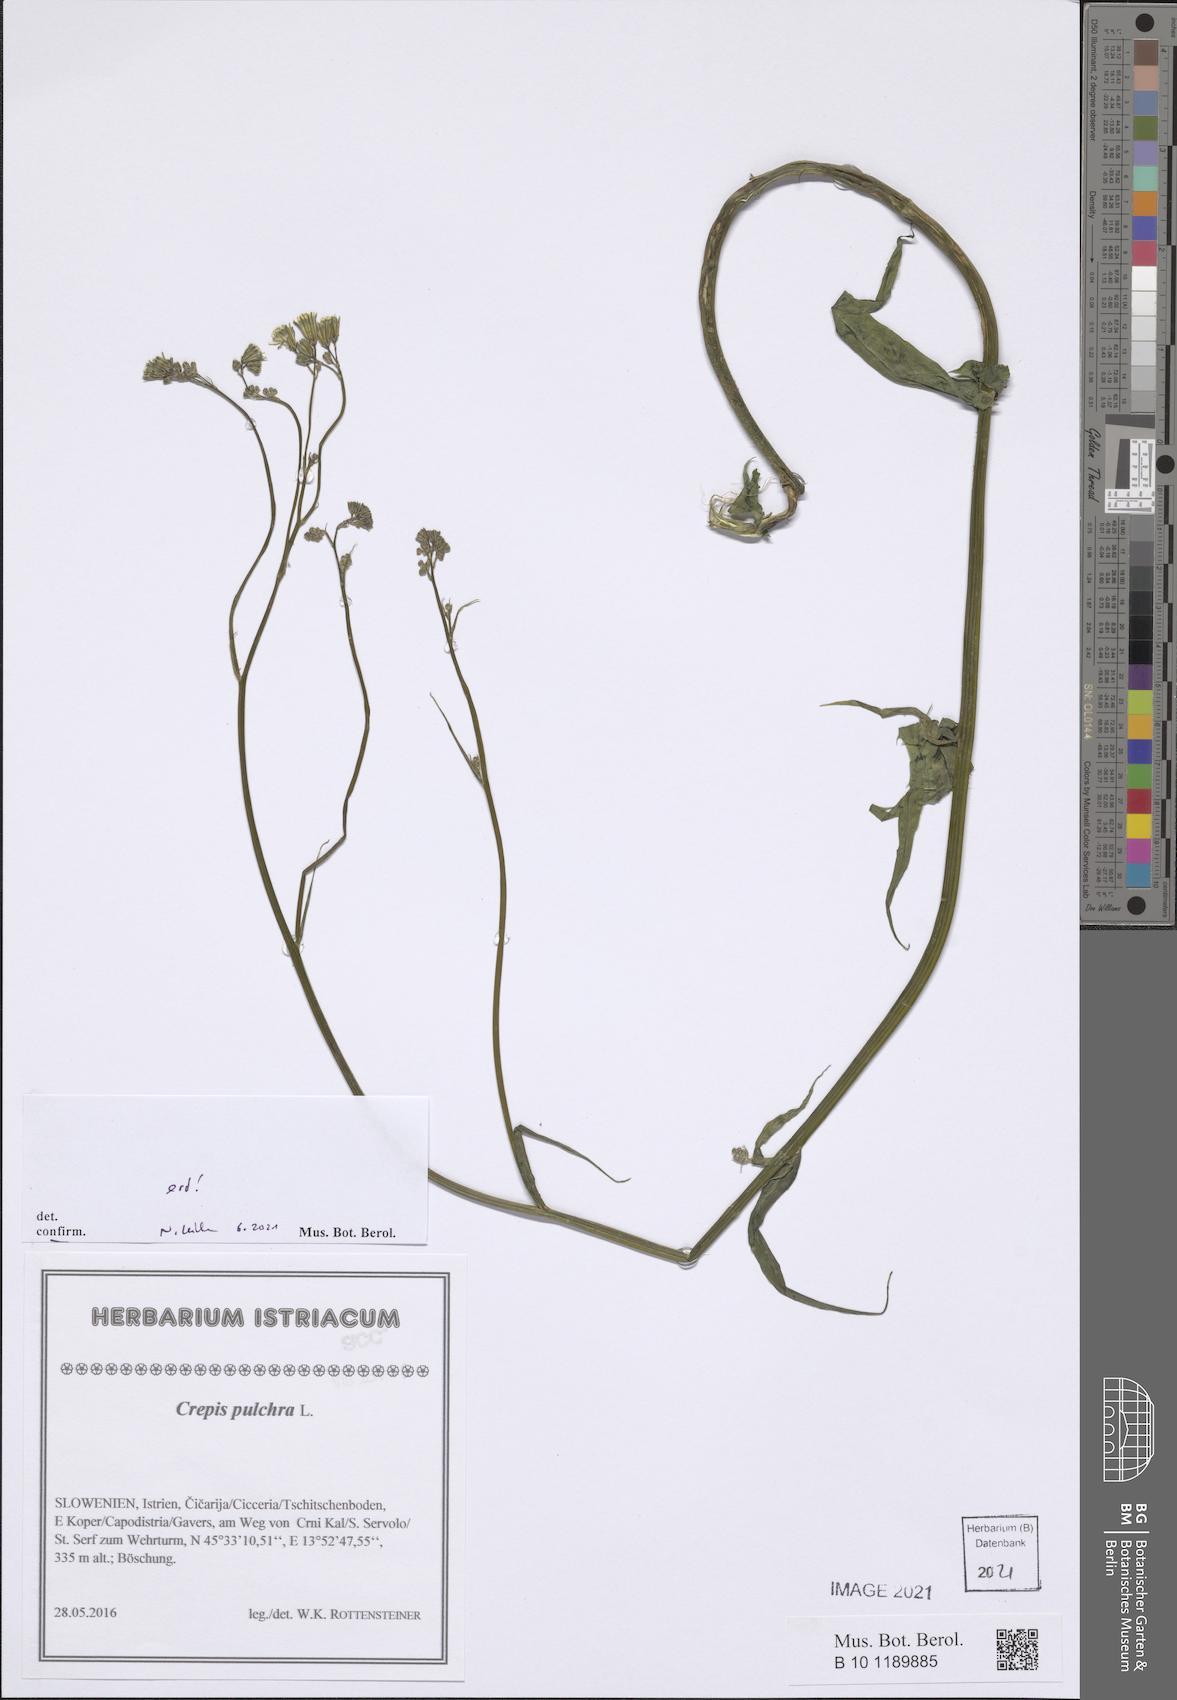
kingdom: Plantae
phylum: Tracheophyta
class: Magnoliopsida
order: Asterales
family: Asteraceae
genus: Crepis
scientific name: Crepis pulchra
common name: Hawk's-beard
